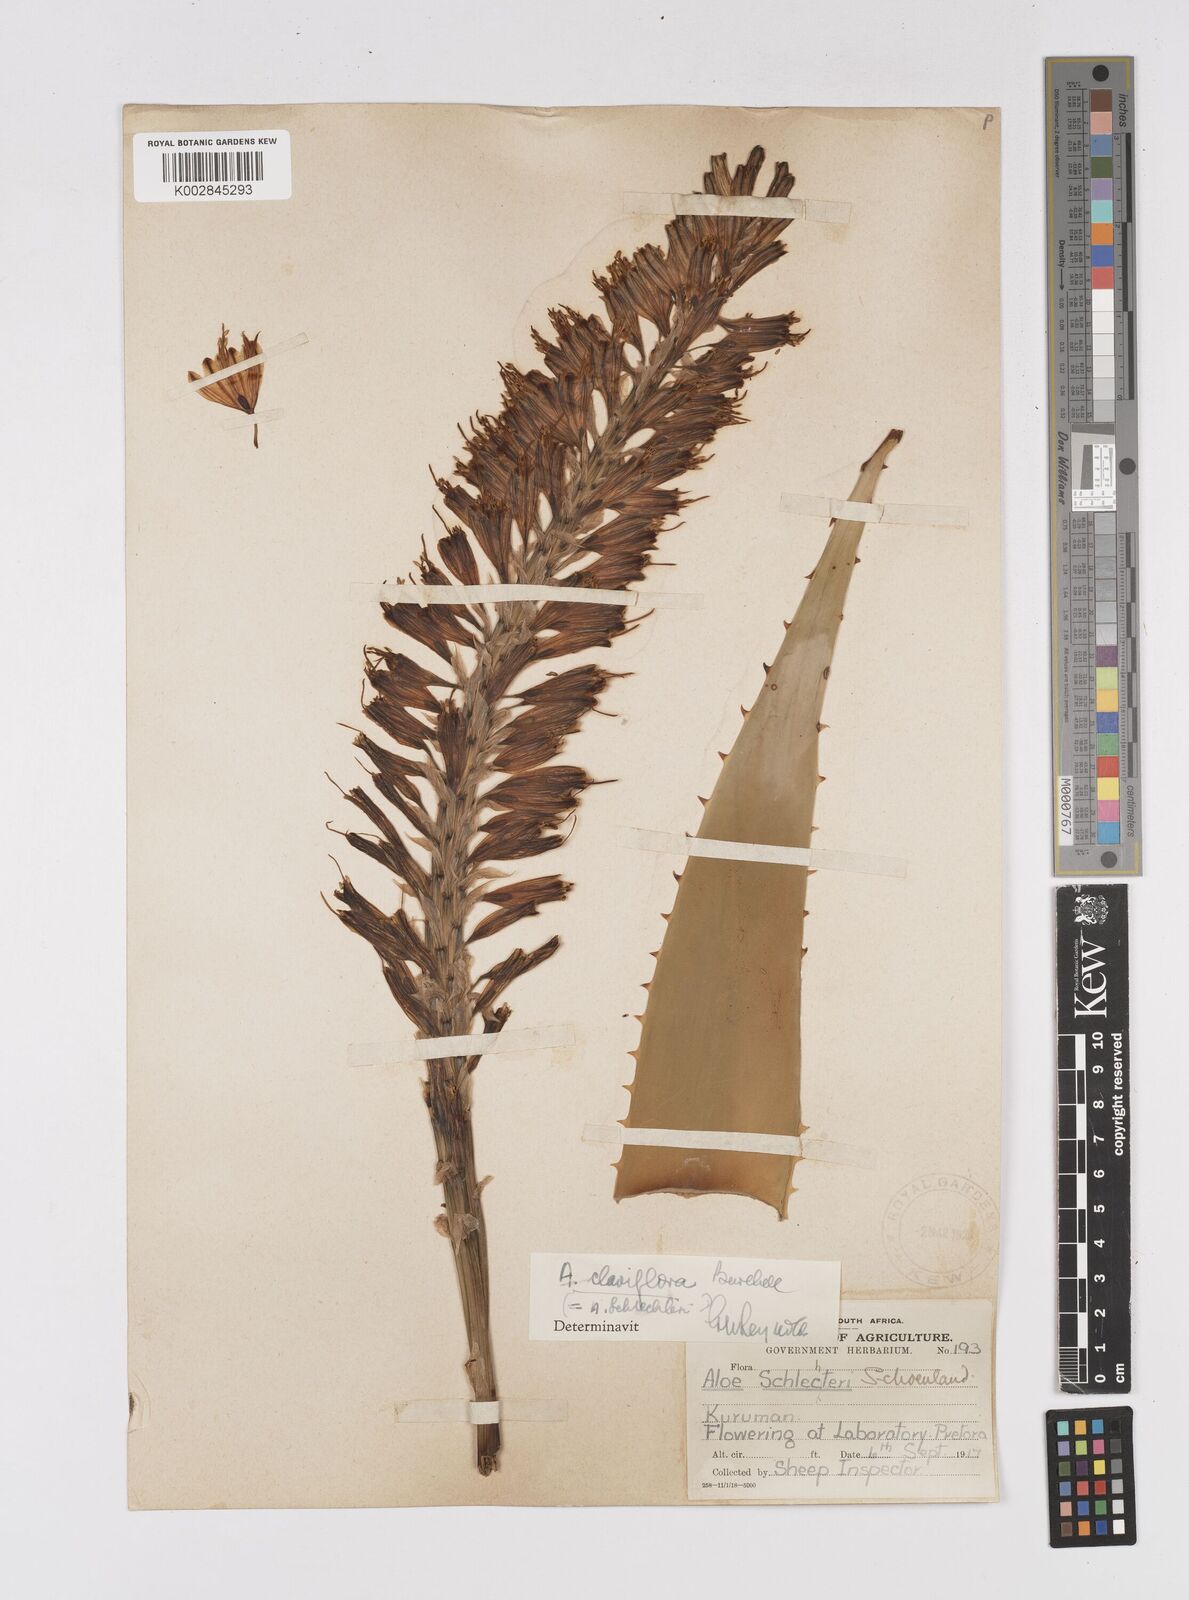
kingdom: Plantae
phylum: Tracheophyta
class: Liliopsida
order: Asparagales
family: Asphodelaceae
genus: Aloe
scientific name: Aloe claviflora
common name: Cannon aloe
